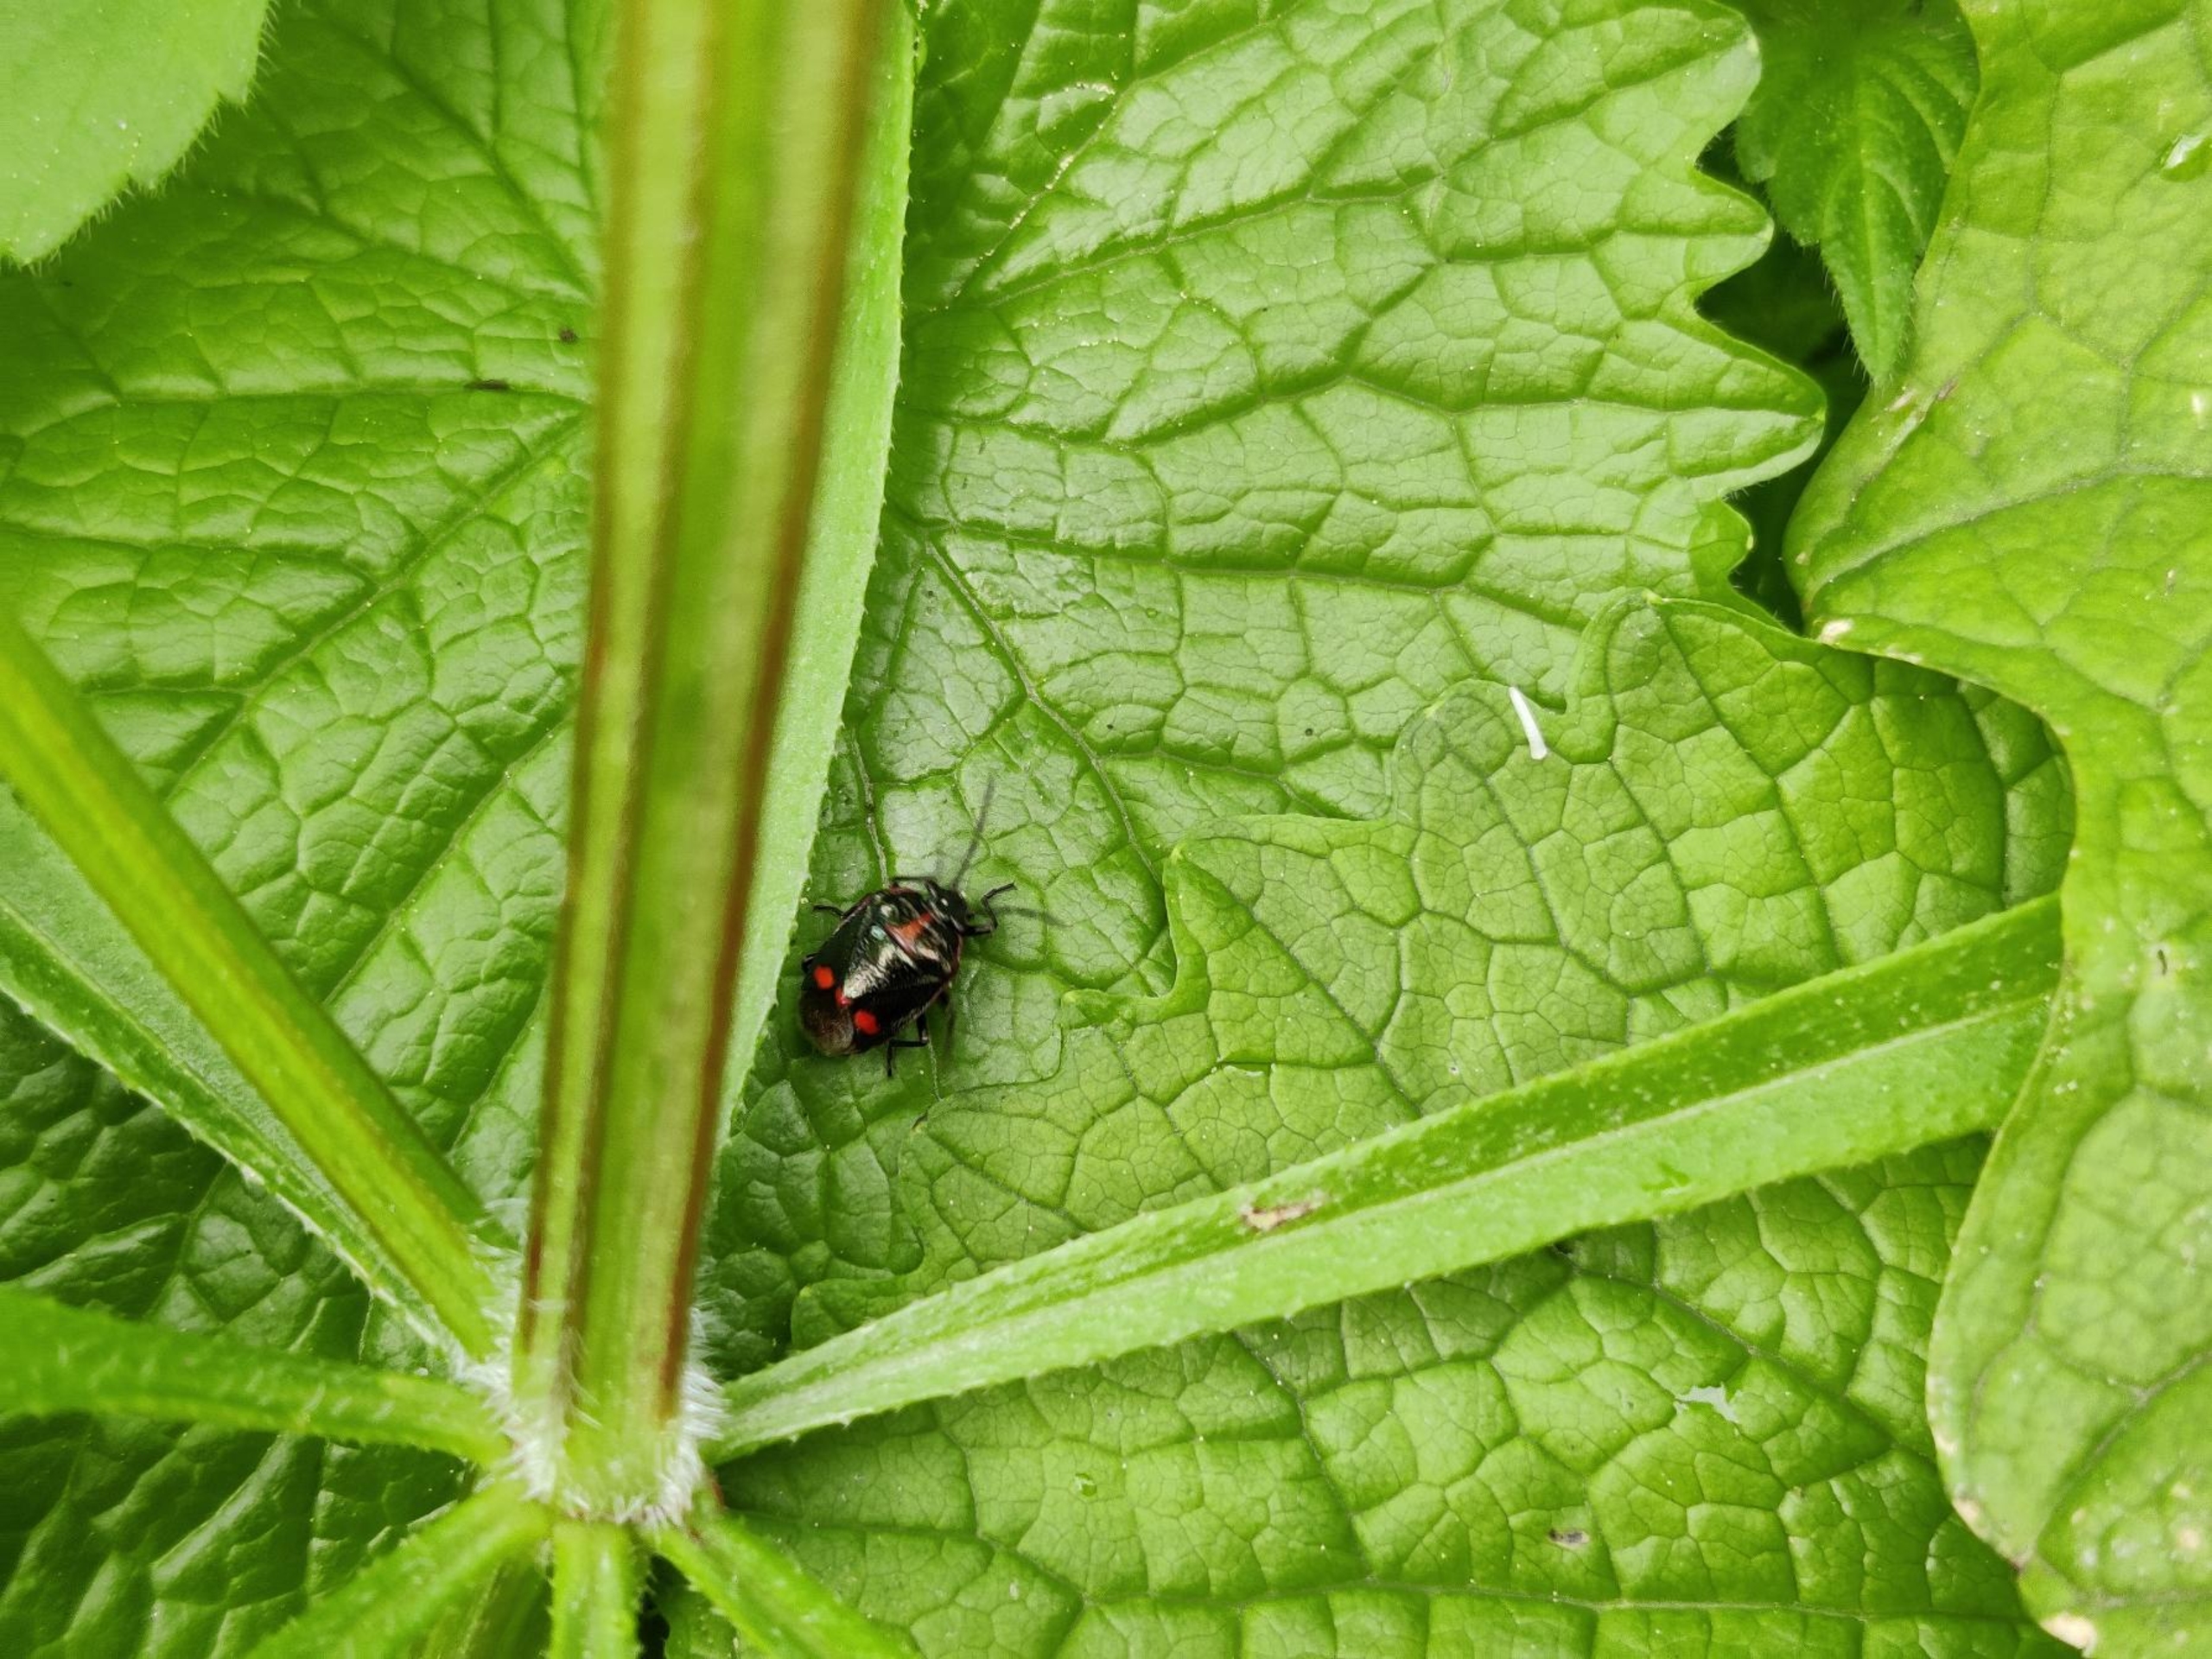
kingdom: Animalia
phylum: Arthropoda
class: Insecta
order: Hemiptera
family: Pentatomidae
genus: Eurydema
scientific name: Eurydema oleracea
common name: Almindelig kåltæge
